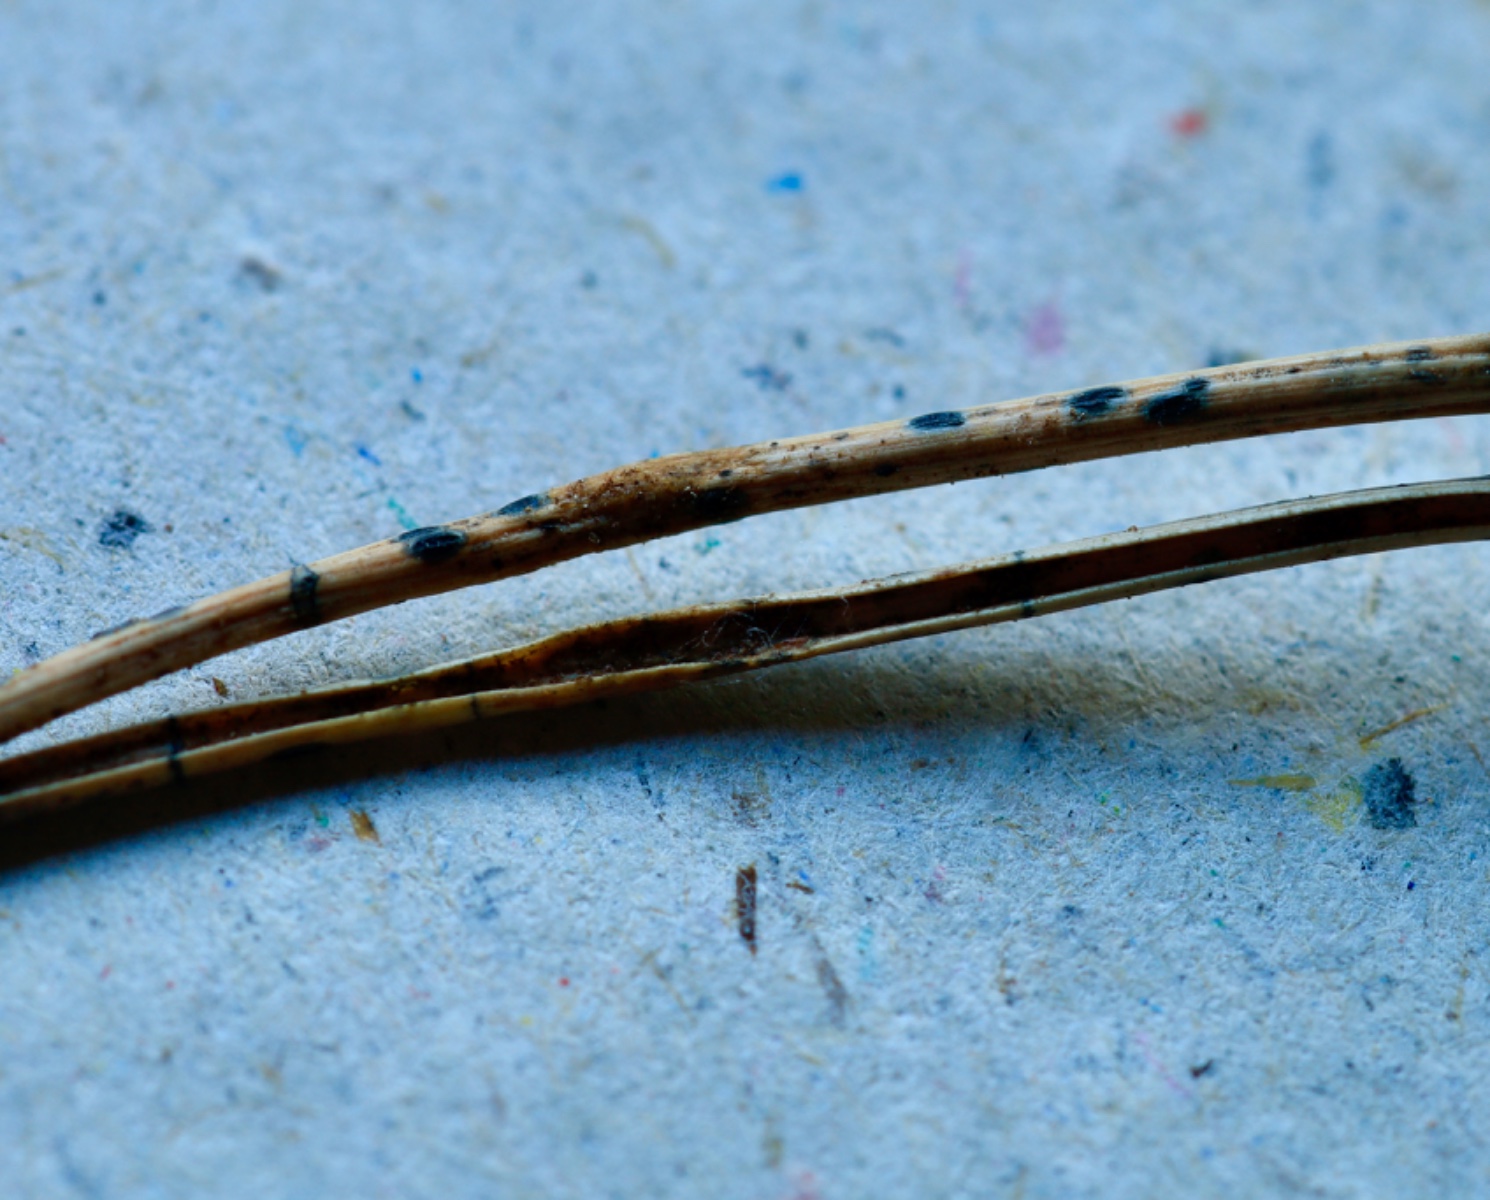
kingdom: Fungi
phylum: Ascomycota
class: Leotiomycetes
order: Rhytismatales
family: Rhytismataceae
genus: Lophodermium
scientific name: Lophodermium pinastri
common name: fyrre-fureplet
